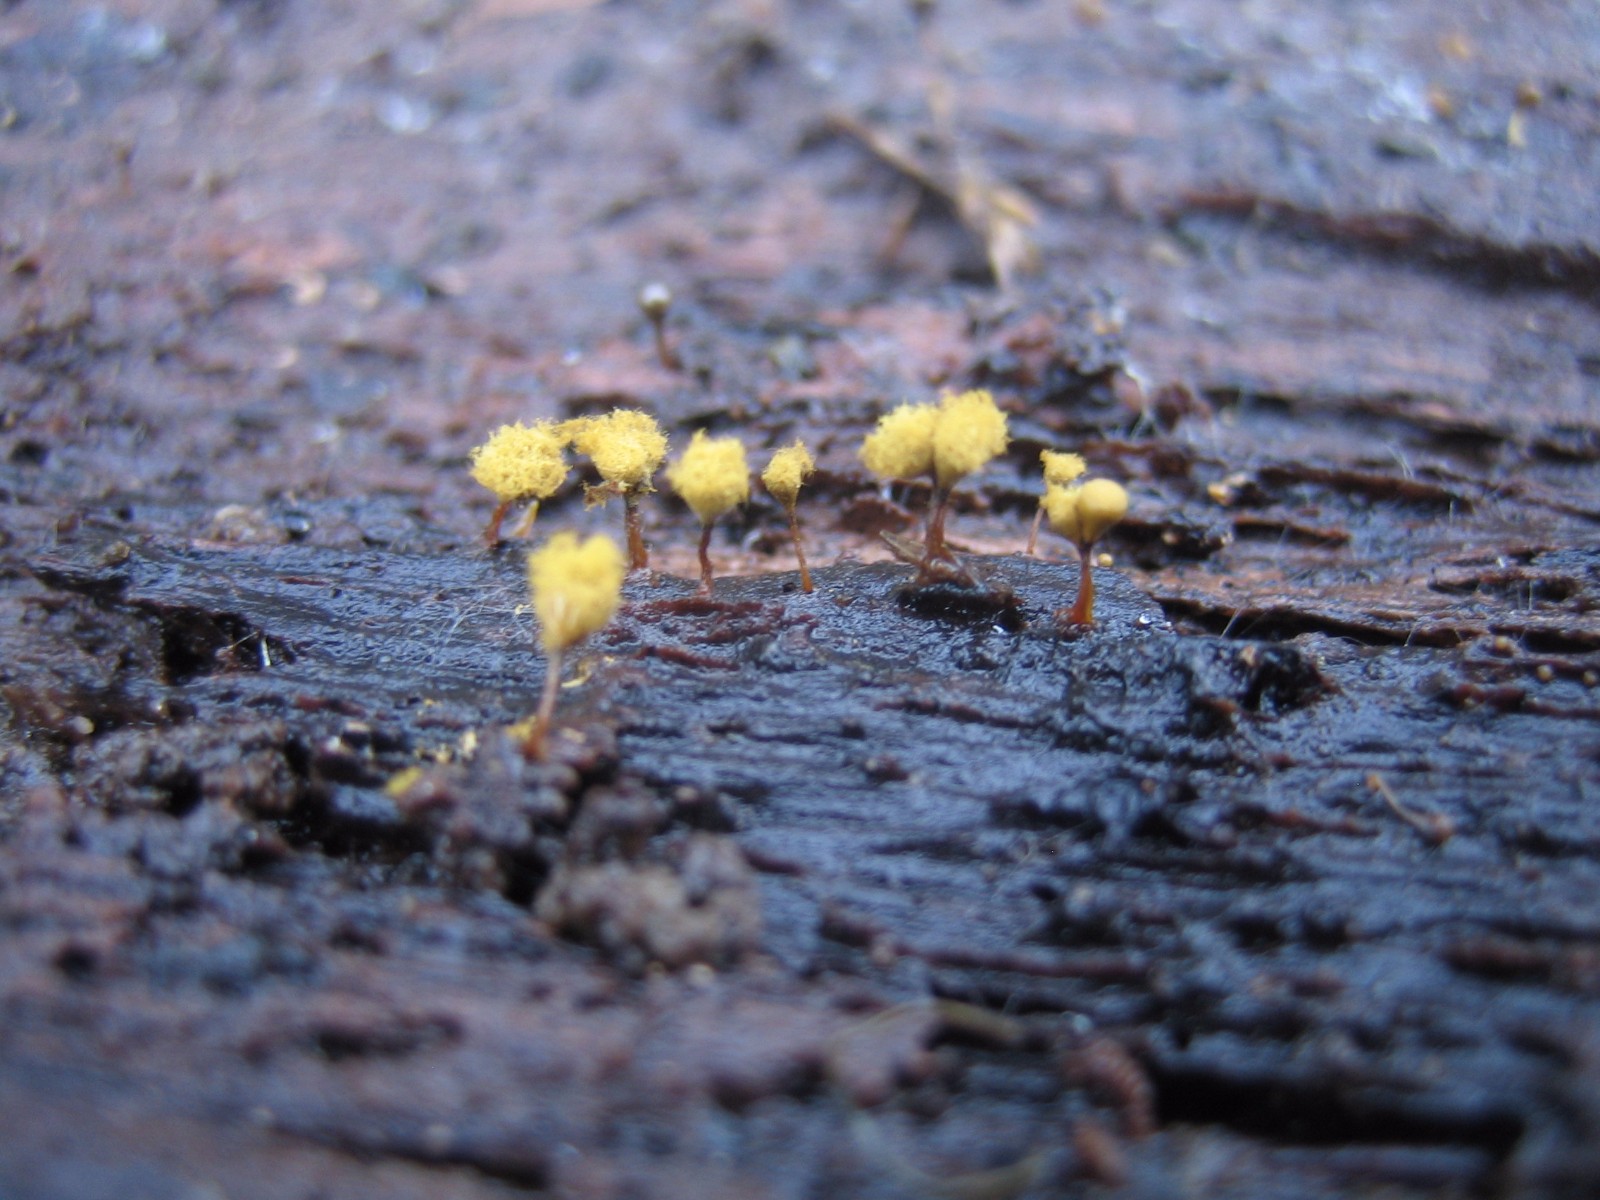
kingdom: Protozoa
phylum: Mycetozoa
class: Myxomycetes
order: Trichiales
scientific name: Trichiales
